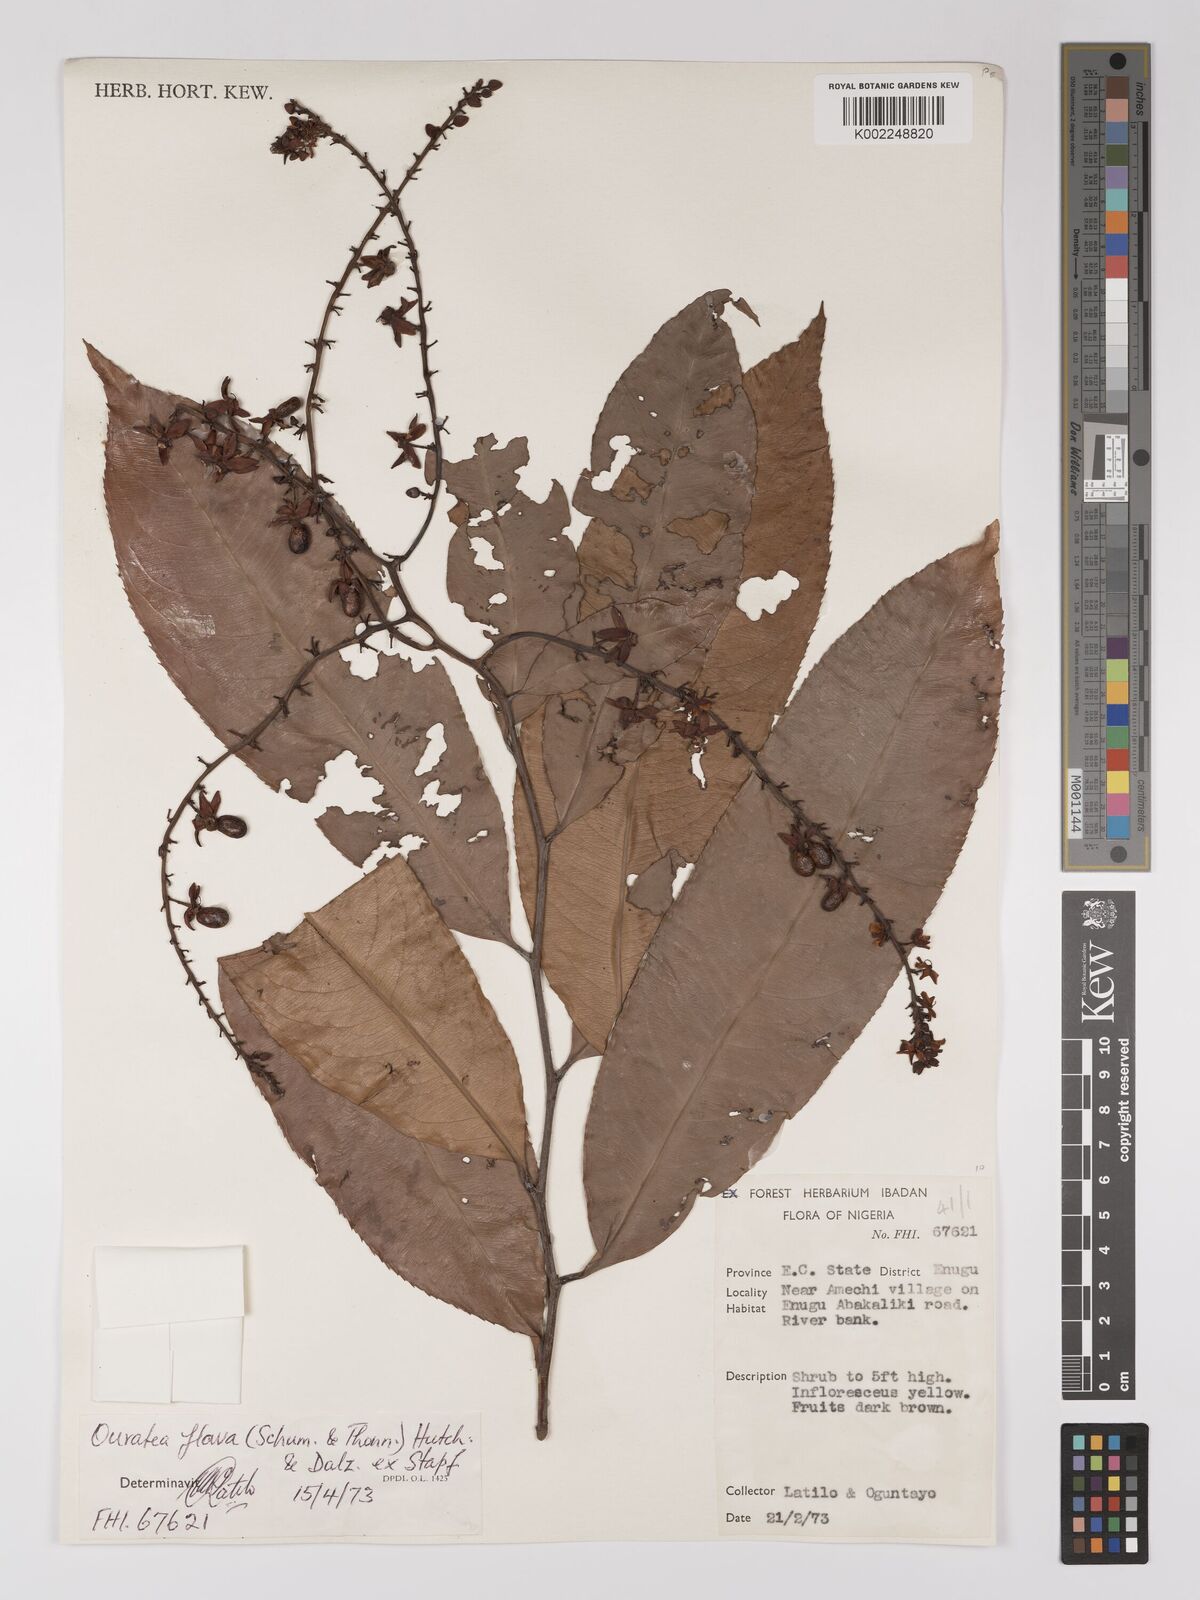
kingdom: Plantae
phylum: Tracheophyta
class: Magnoliopsida
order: Malpighiales
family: Ochnaceae
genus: Campylospermum
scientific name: Campylospermum flavum
